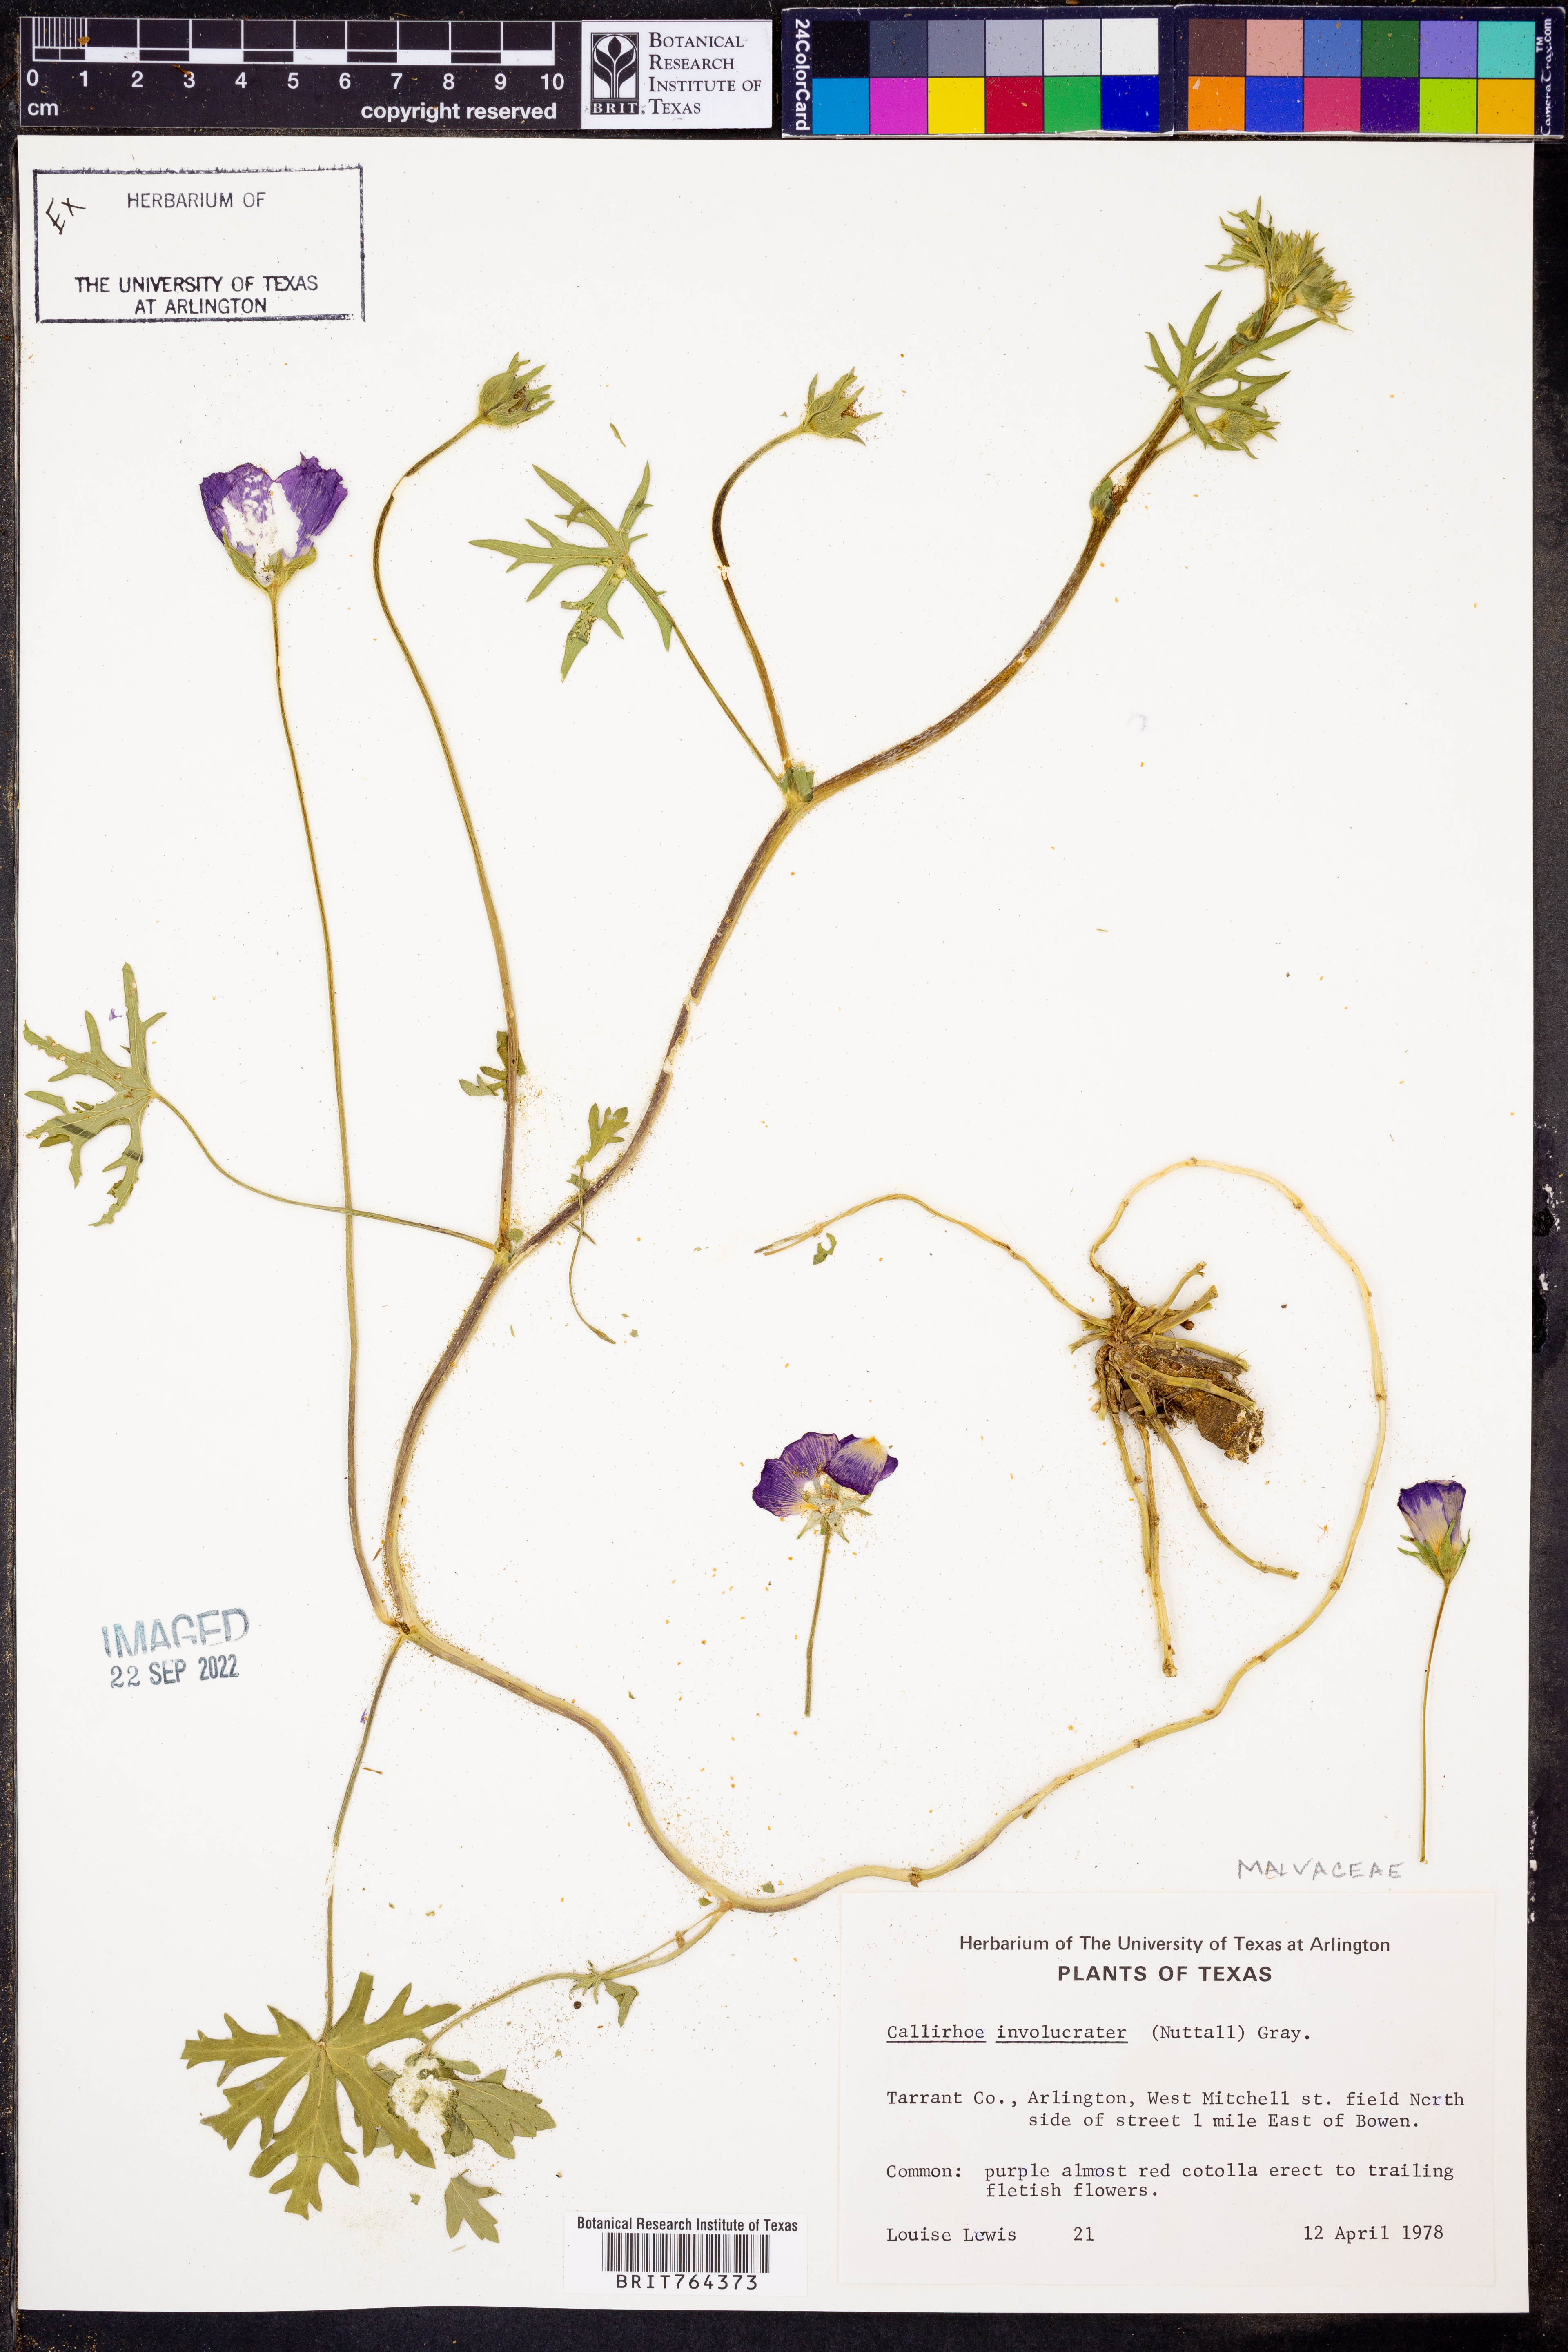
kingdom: Plantae
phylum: Tracheophyta
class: Magnoliopsida
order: Malvales
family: Malvaceae
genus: Callirhoe
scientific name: Callirhoe involucrata
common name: Purple poppy-mallow
